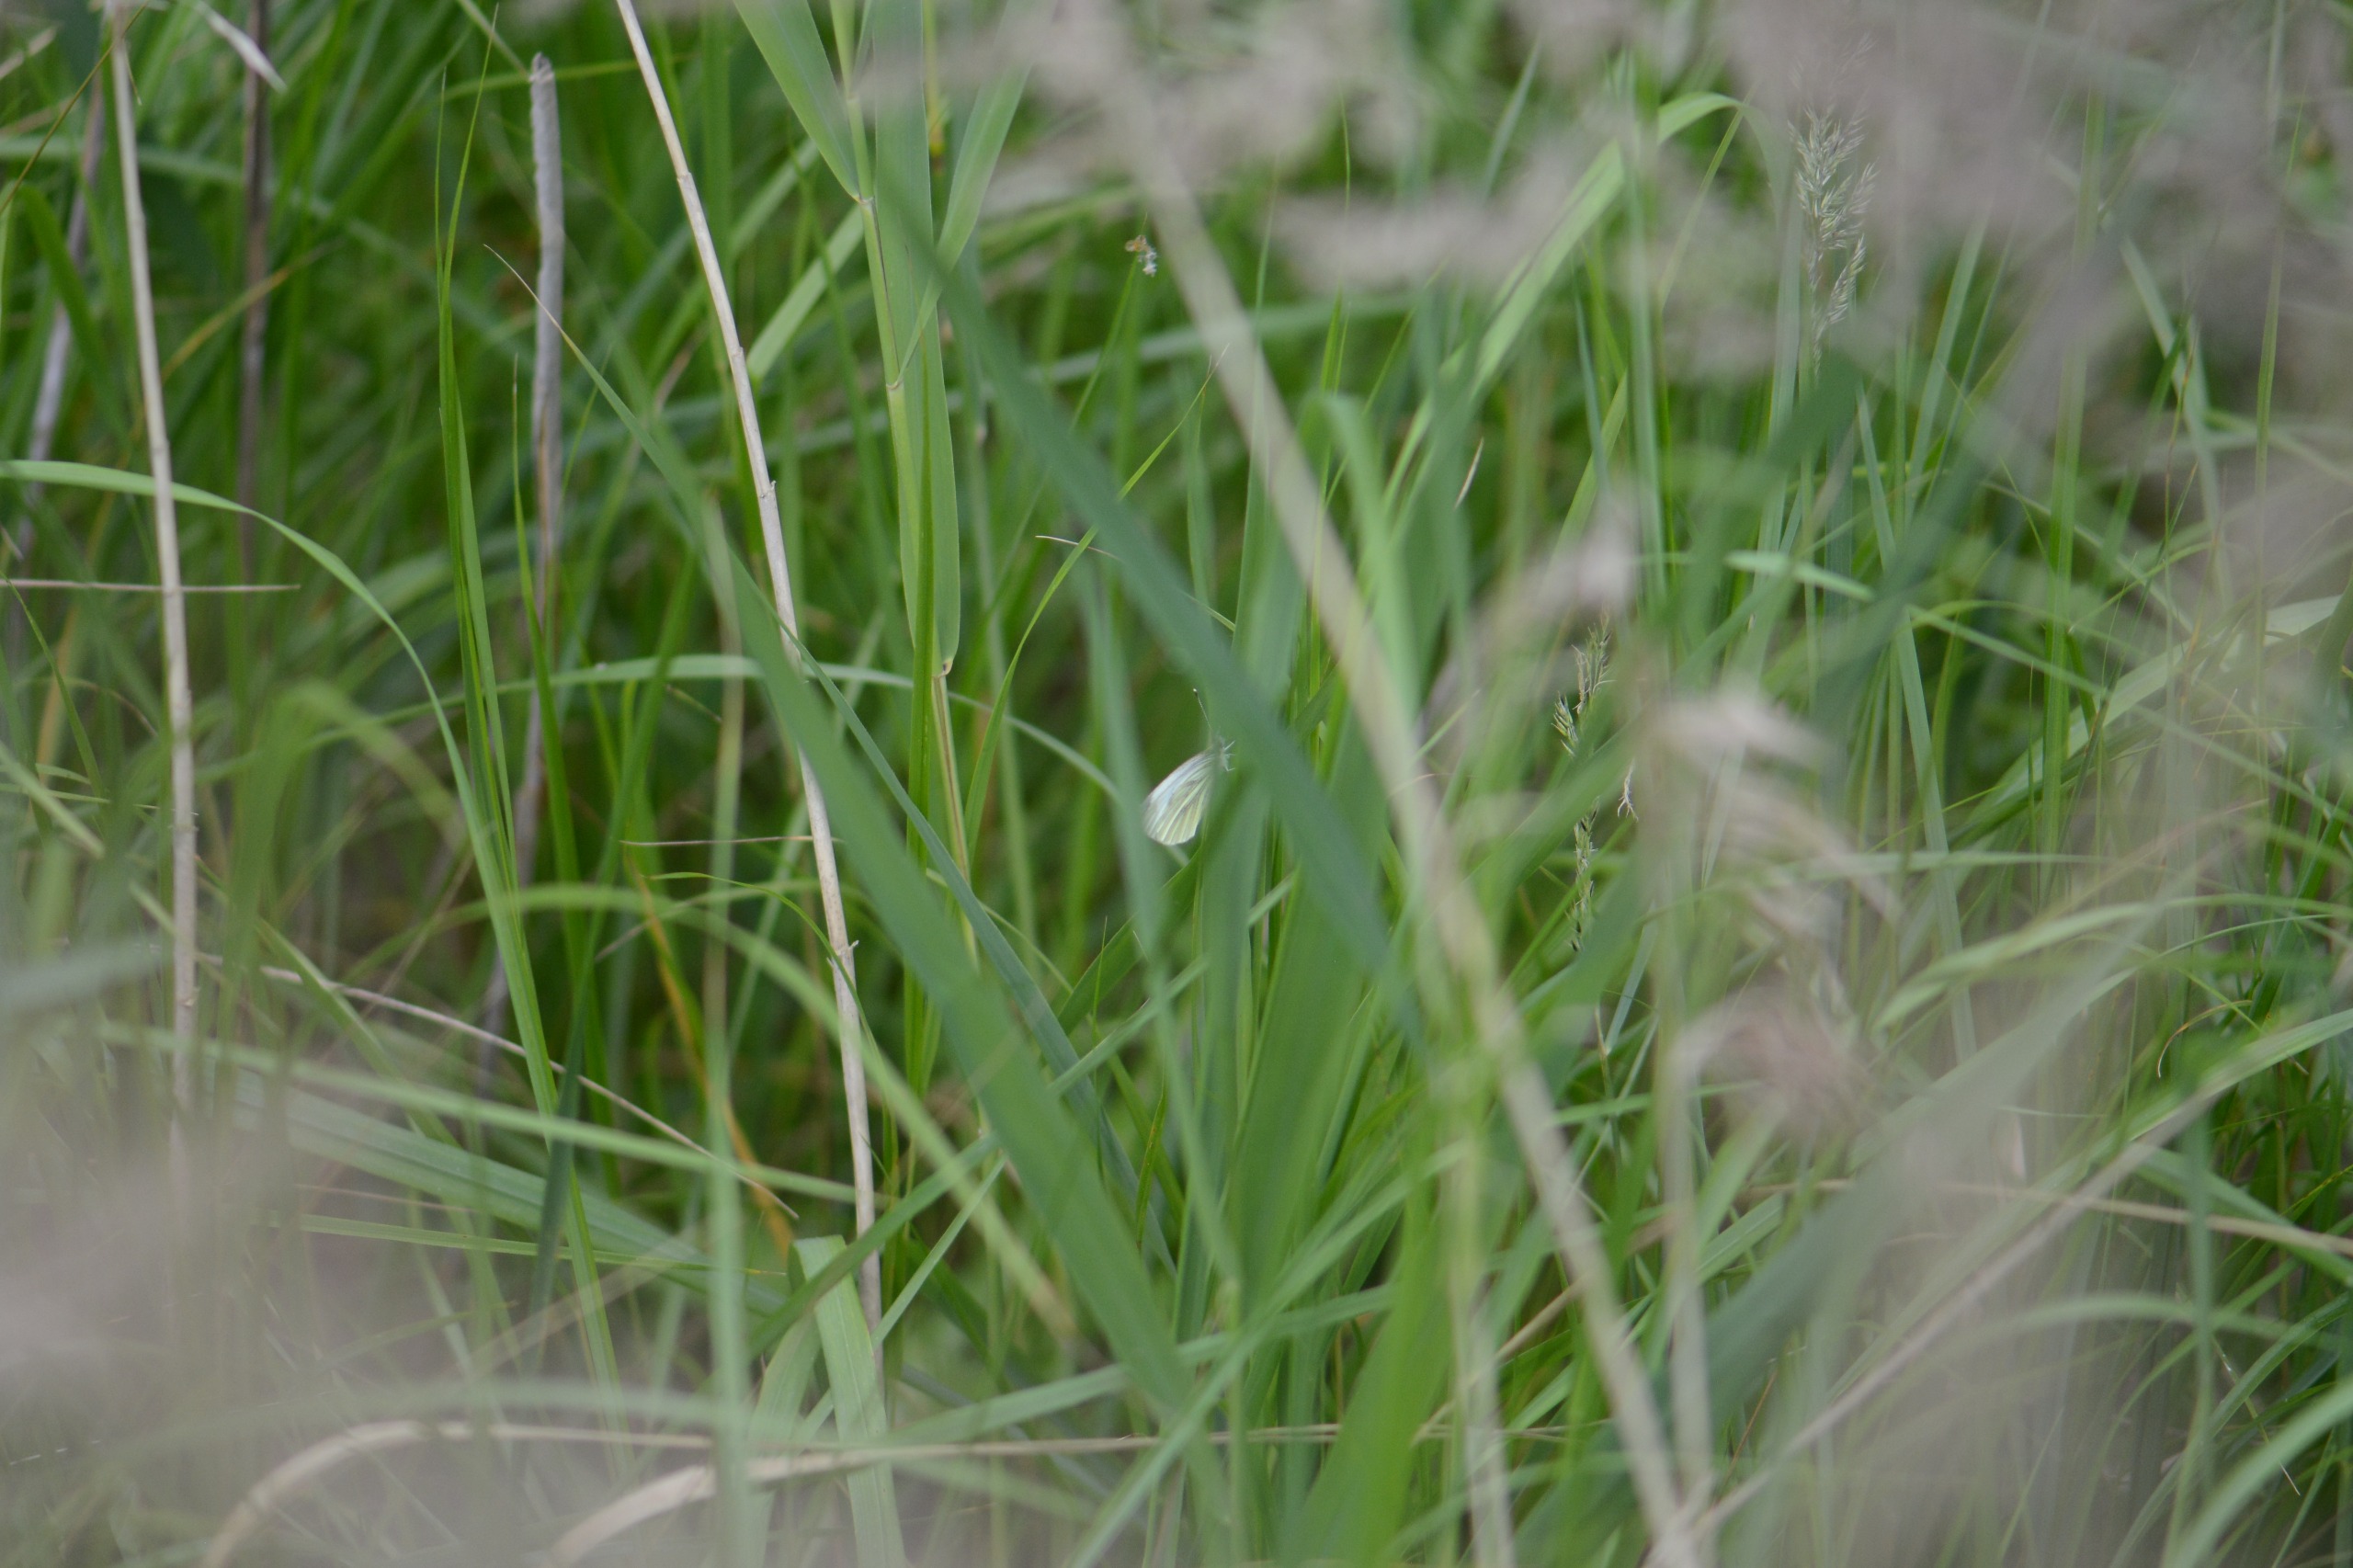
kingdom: Animalia
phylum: Arthropoda
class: Insecta
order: Lepidoptera
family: Pieridae
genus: Pieris
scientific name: Pieris napi
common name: Grønåret kålsommerfugl
